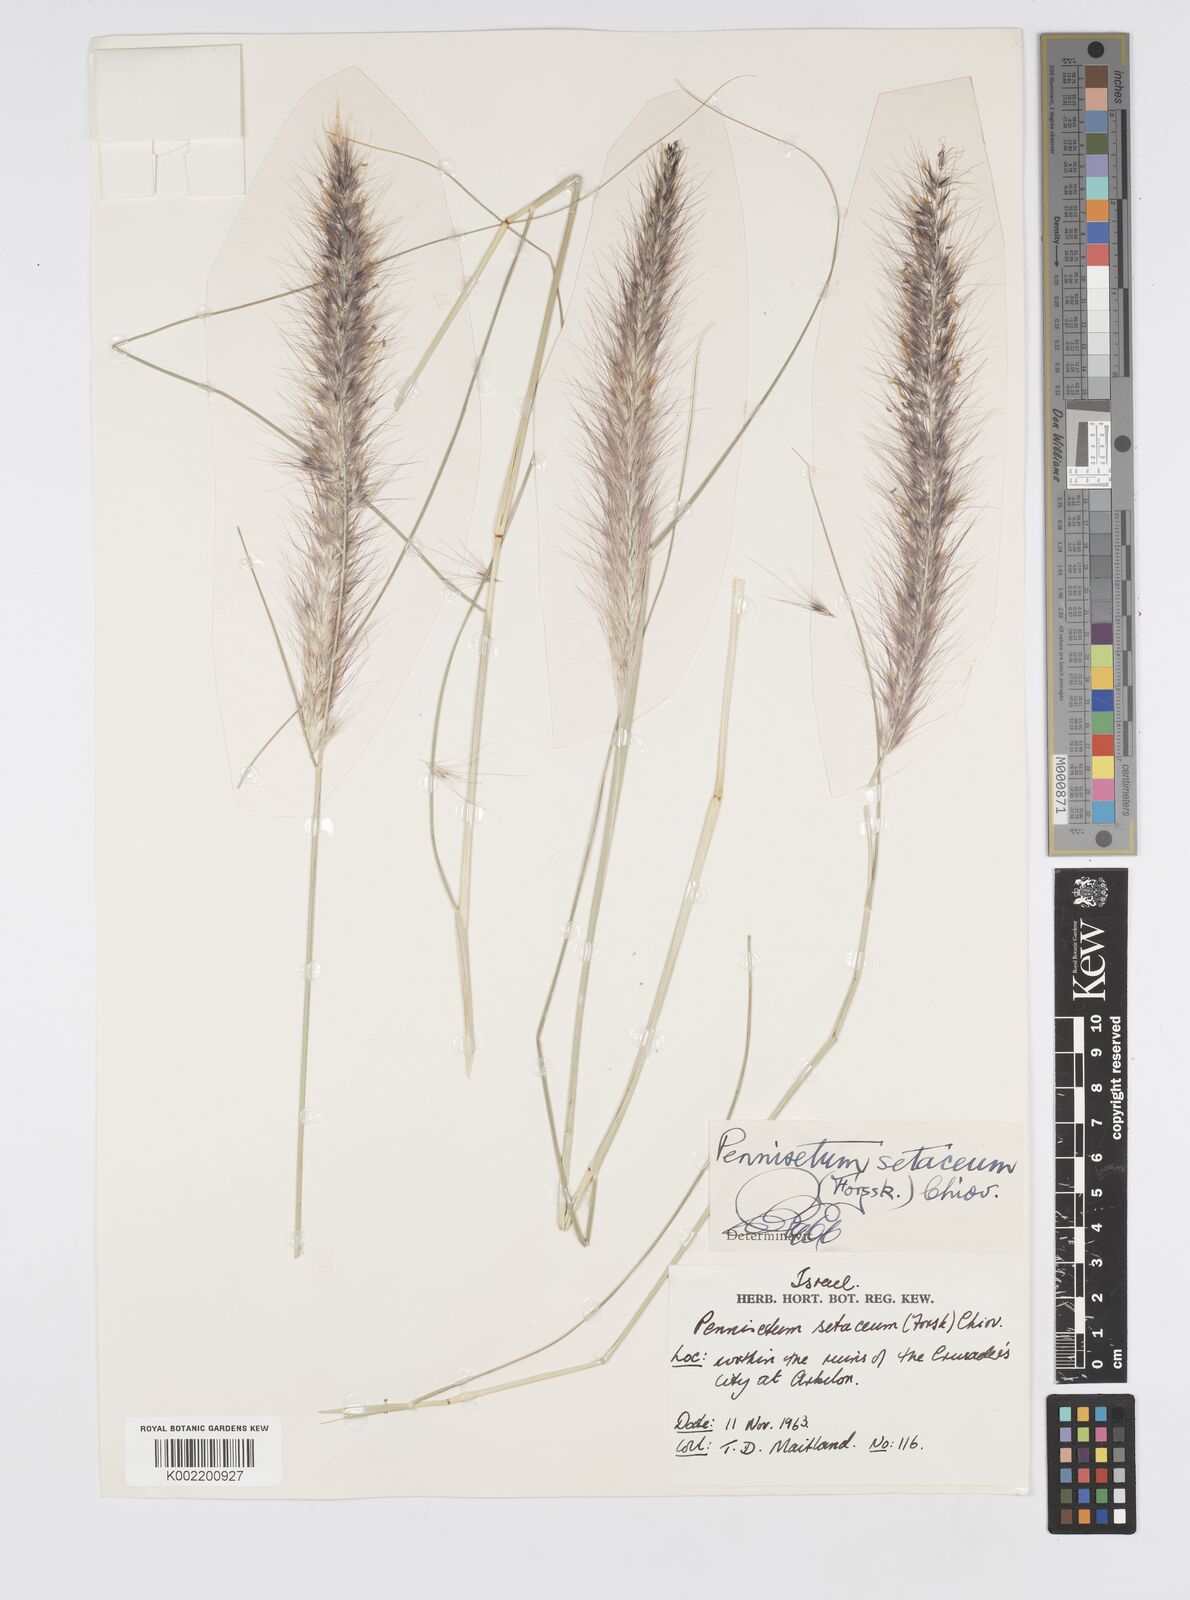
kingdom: Plantae
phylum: Tracheophyta
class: Liliopsida
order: Poales
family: Poaceae
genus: Cenchrus
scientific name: Cenchrus setaceus
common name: Crimson fountaingrass
